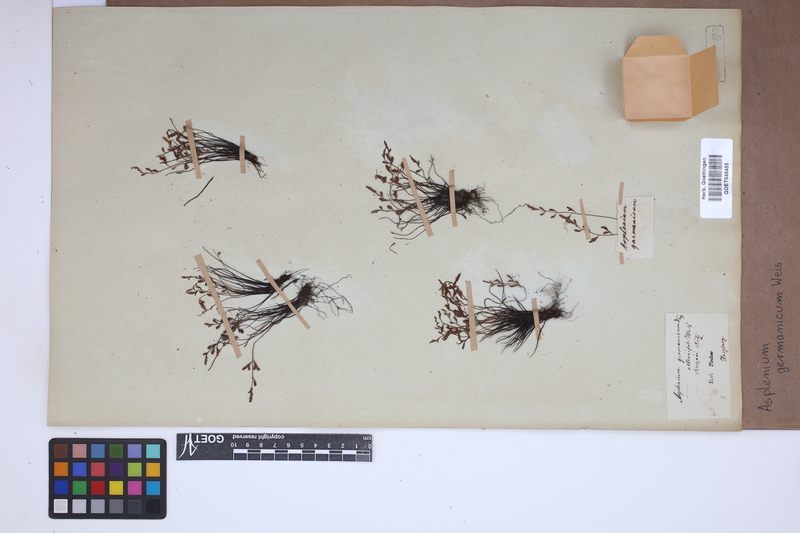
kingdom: Plantae
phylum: Tracheophyta
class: Polypodiopsida
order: Polypodiales
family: Aspleniaceae
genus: Asplenium
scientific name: Asplenium
